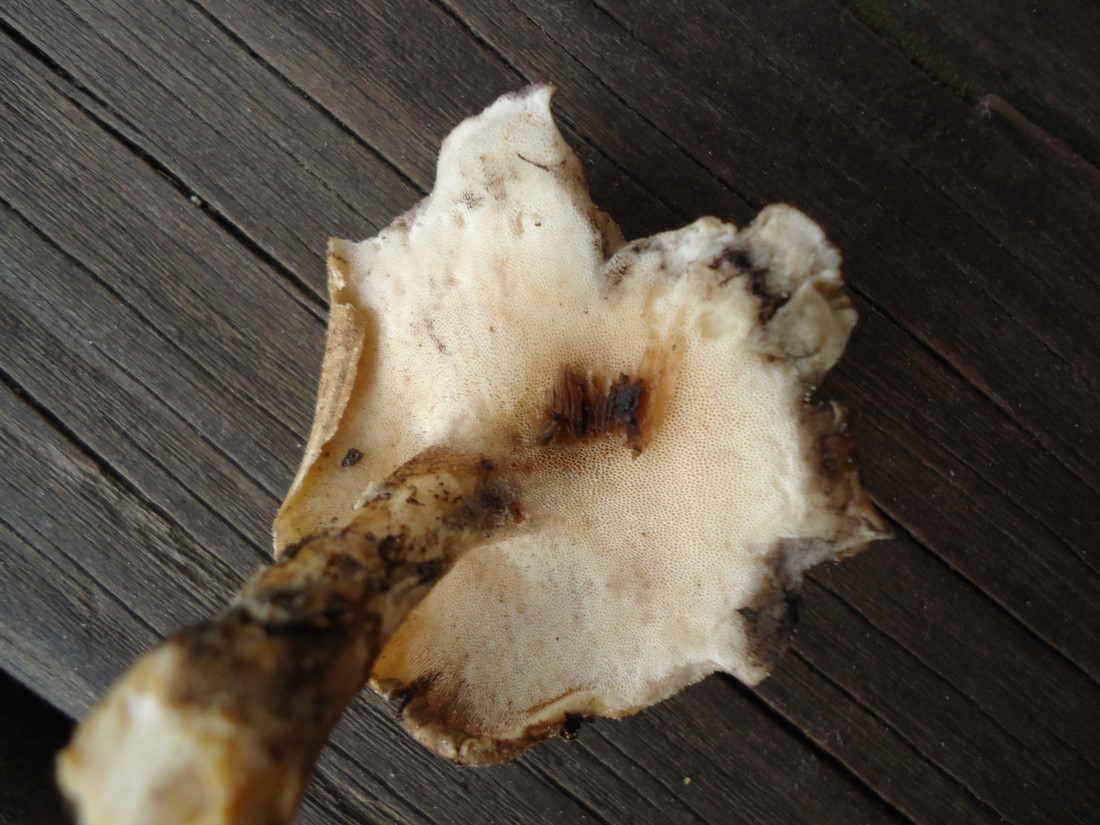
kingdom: Fungi
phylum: Basidiomycota
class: Agaricomycetes
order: Polyporales
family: Polyporaceae
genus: Lentinus
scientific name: Lentinus substrictus
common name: forårs-stilkporesvamp
